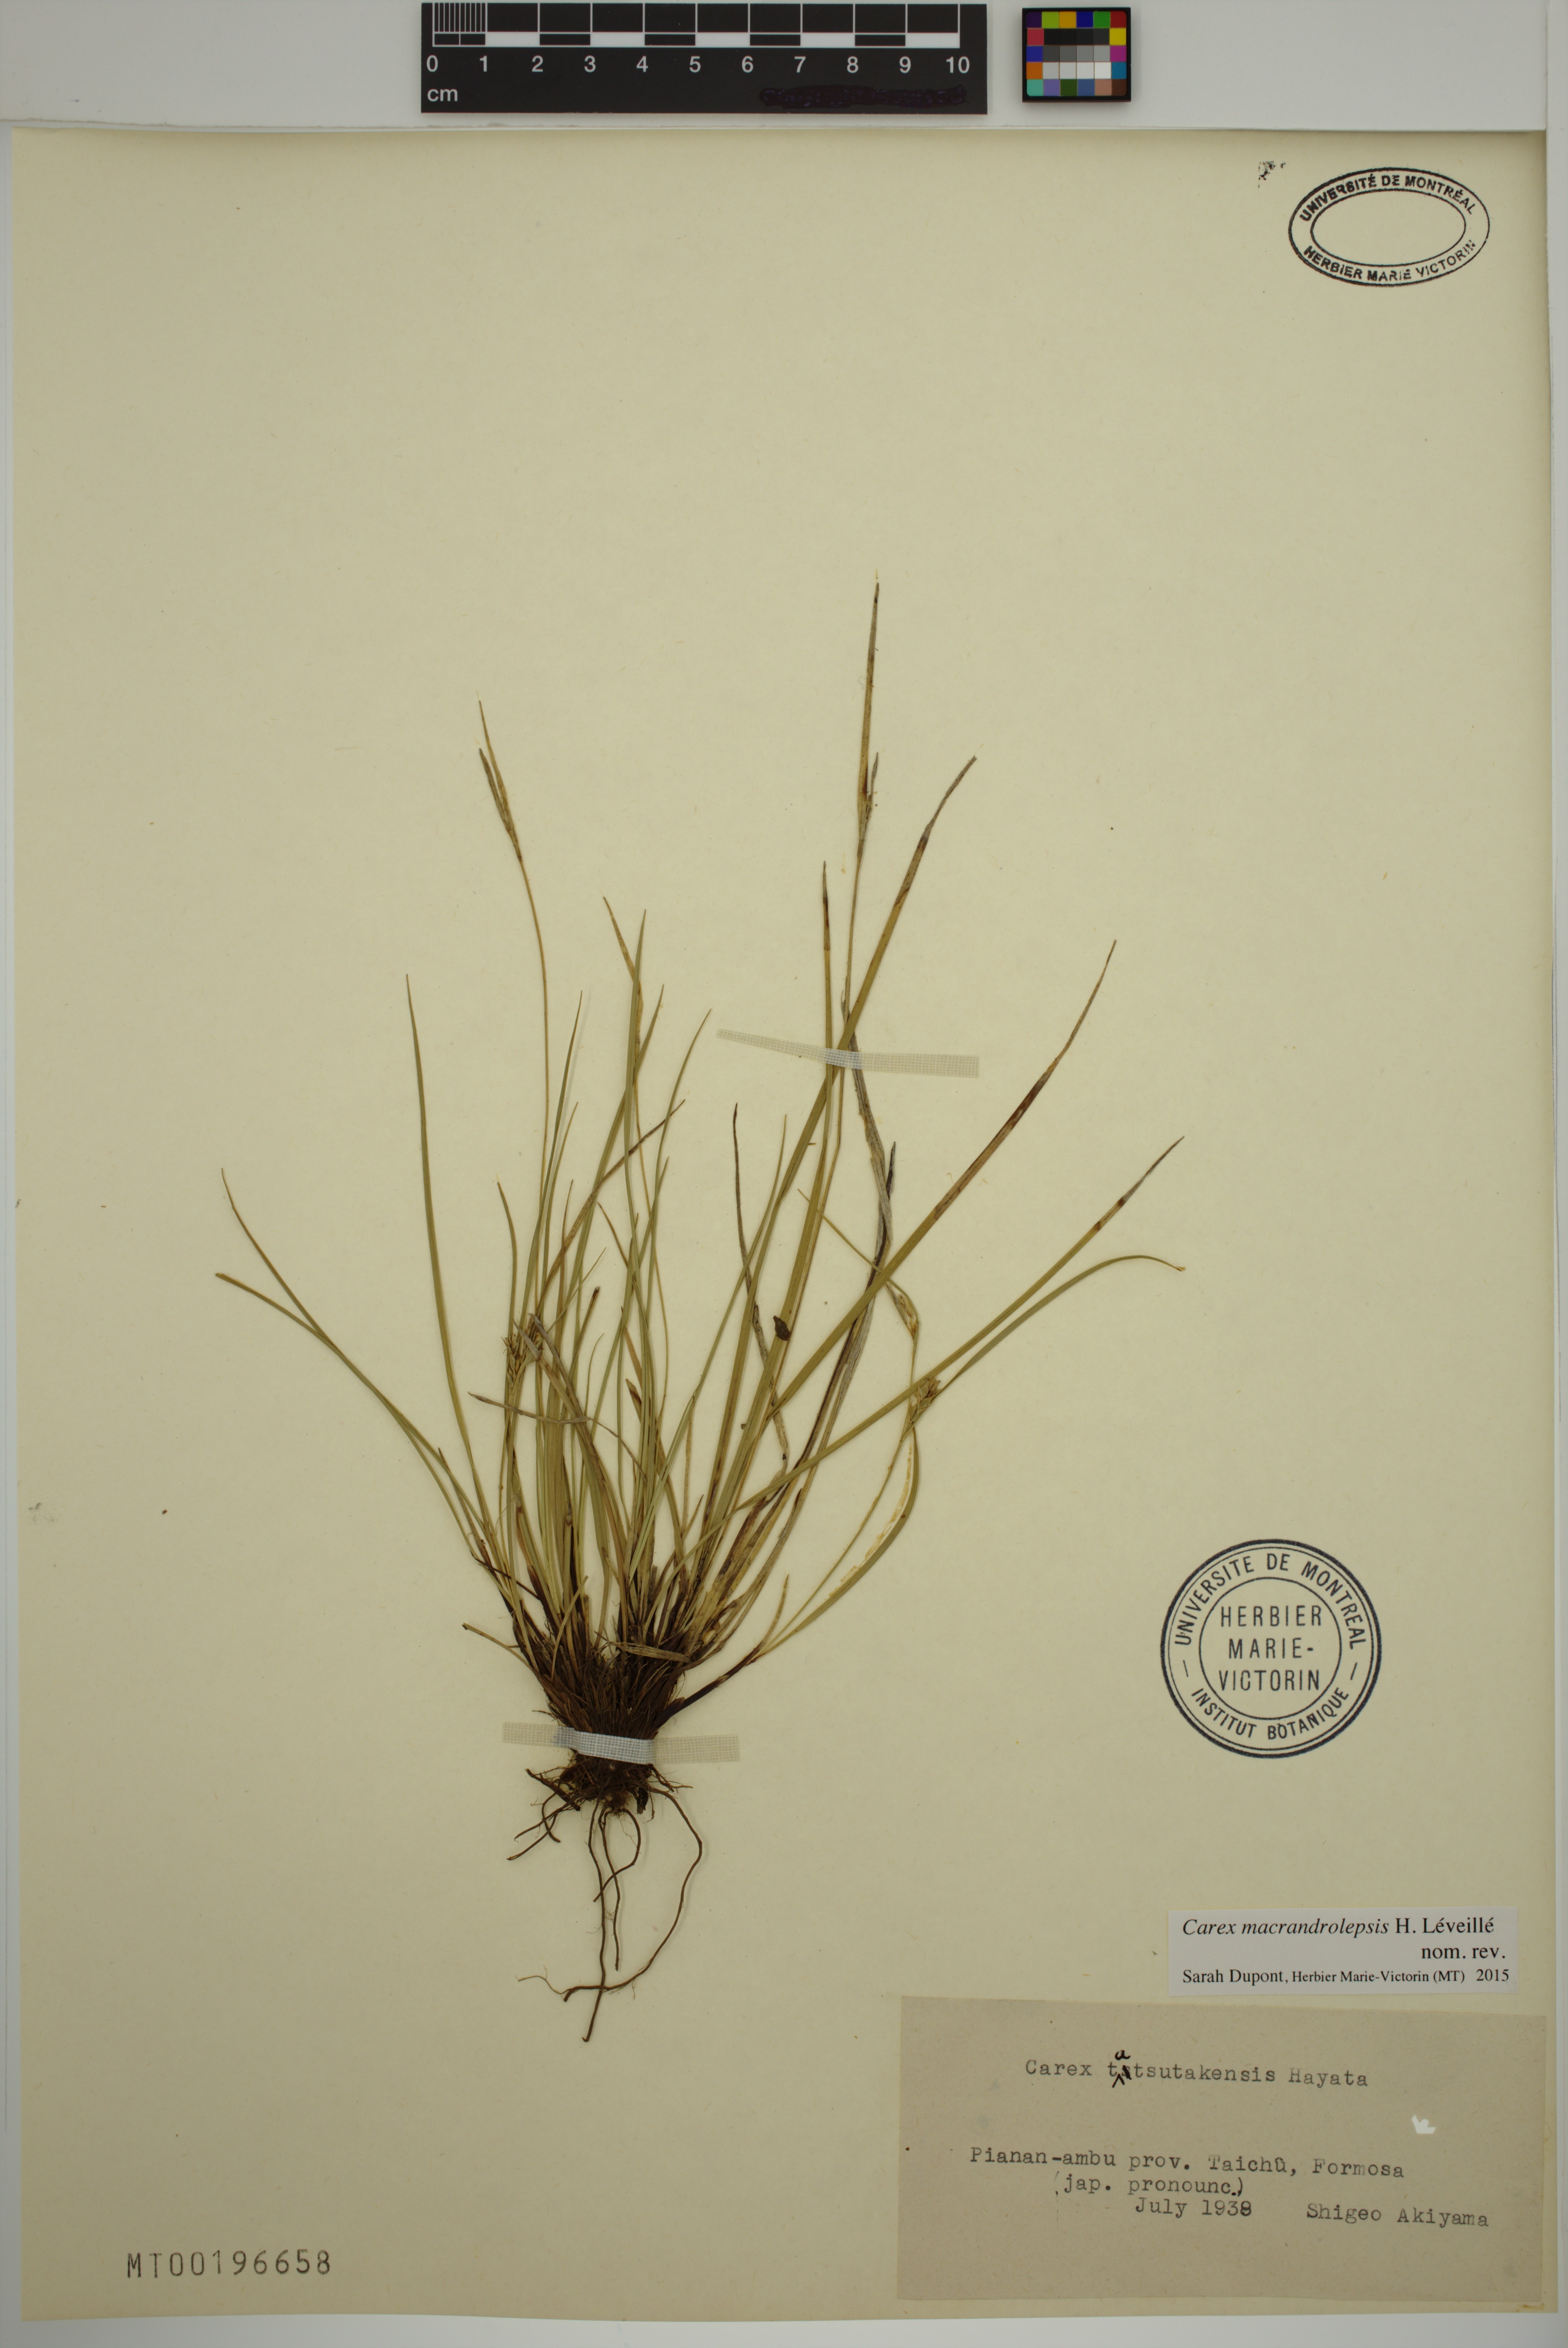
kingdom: Plantae
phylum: Tracheophyta
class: Liliopsida
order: Poales
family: Cyperaceae
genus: Carex
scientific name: Carex oxyphylla
